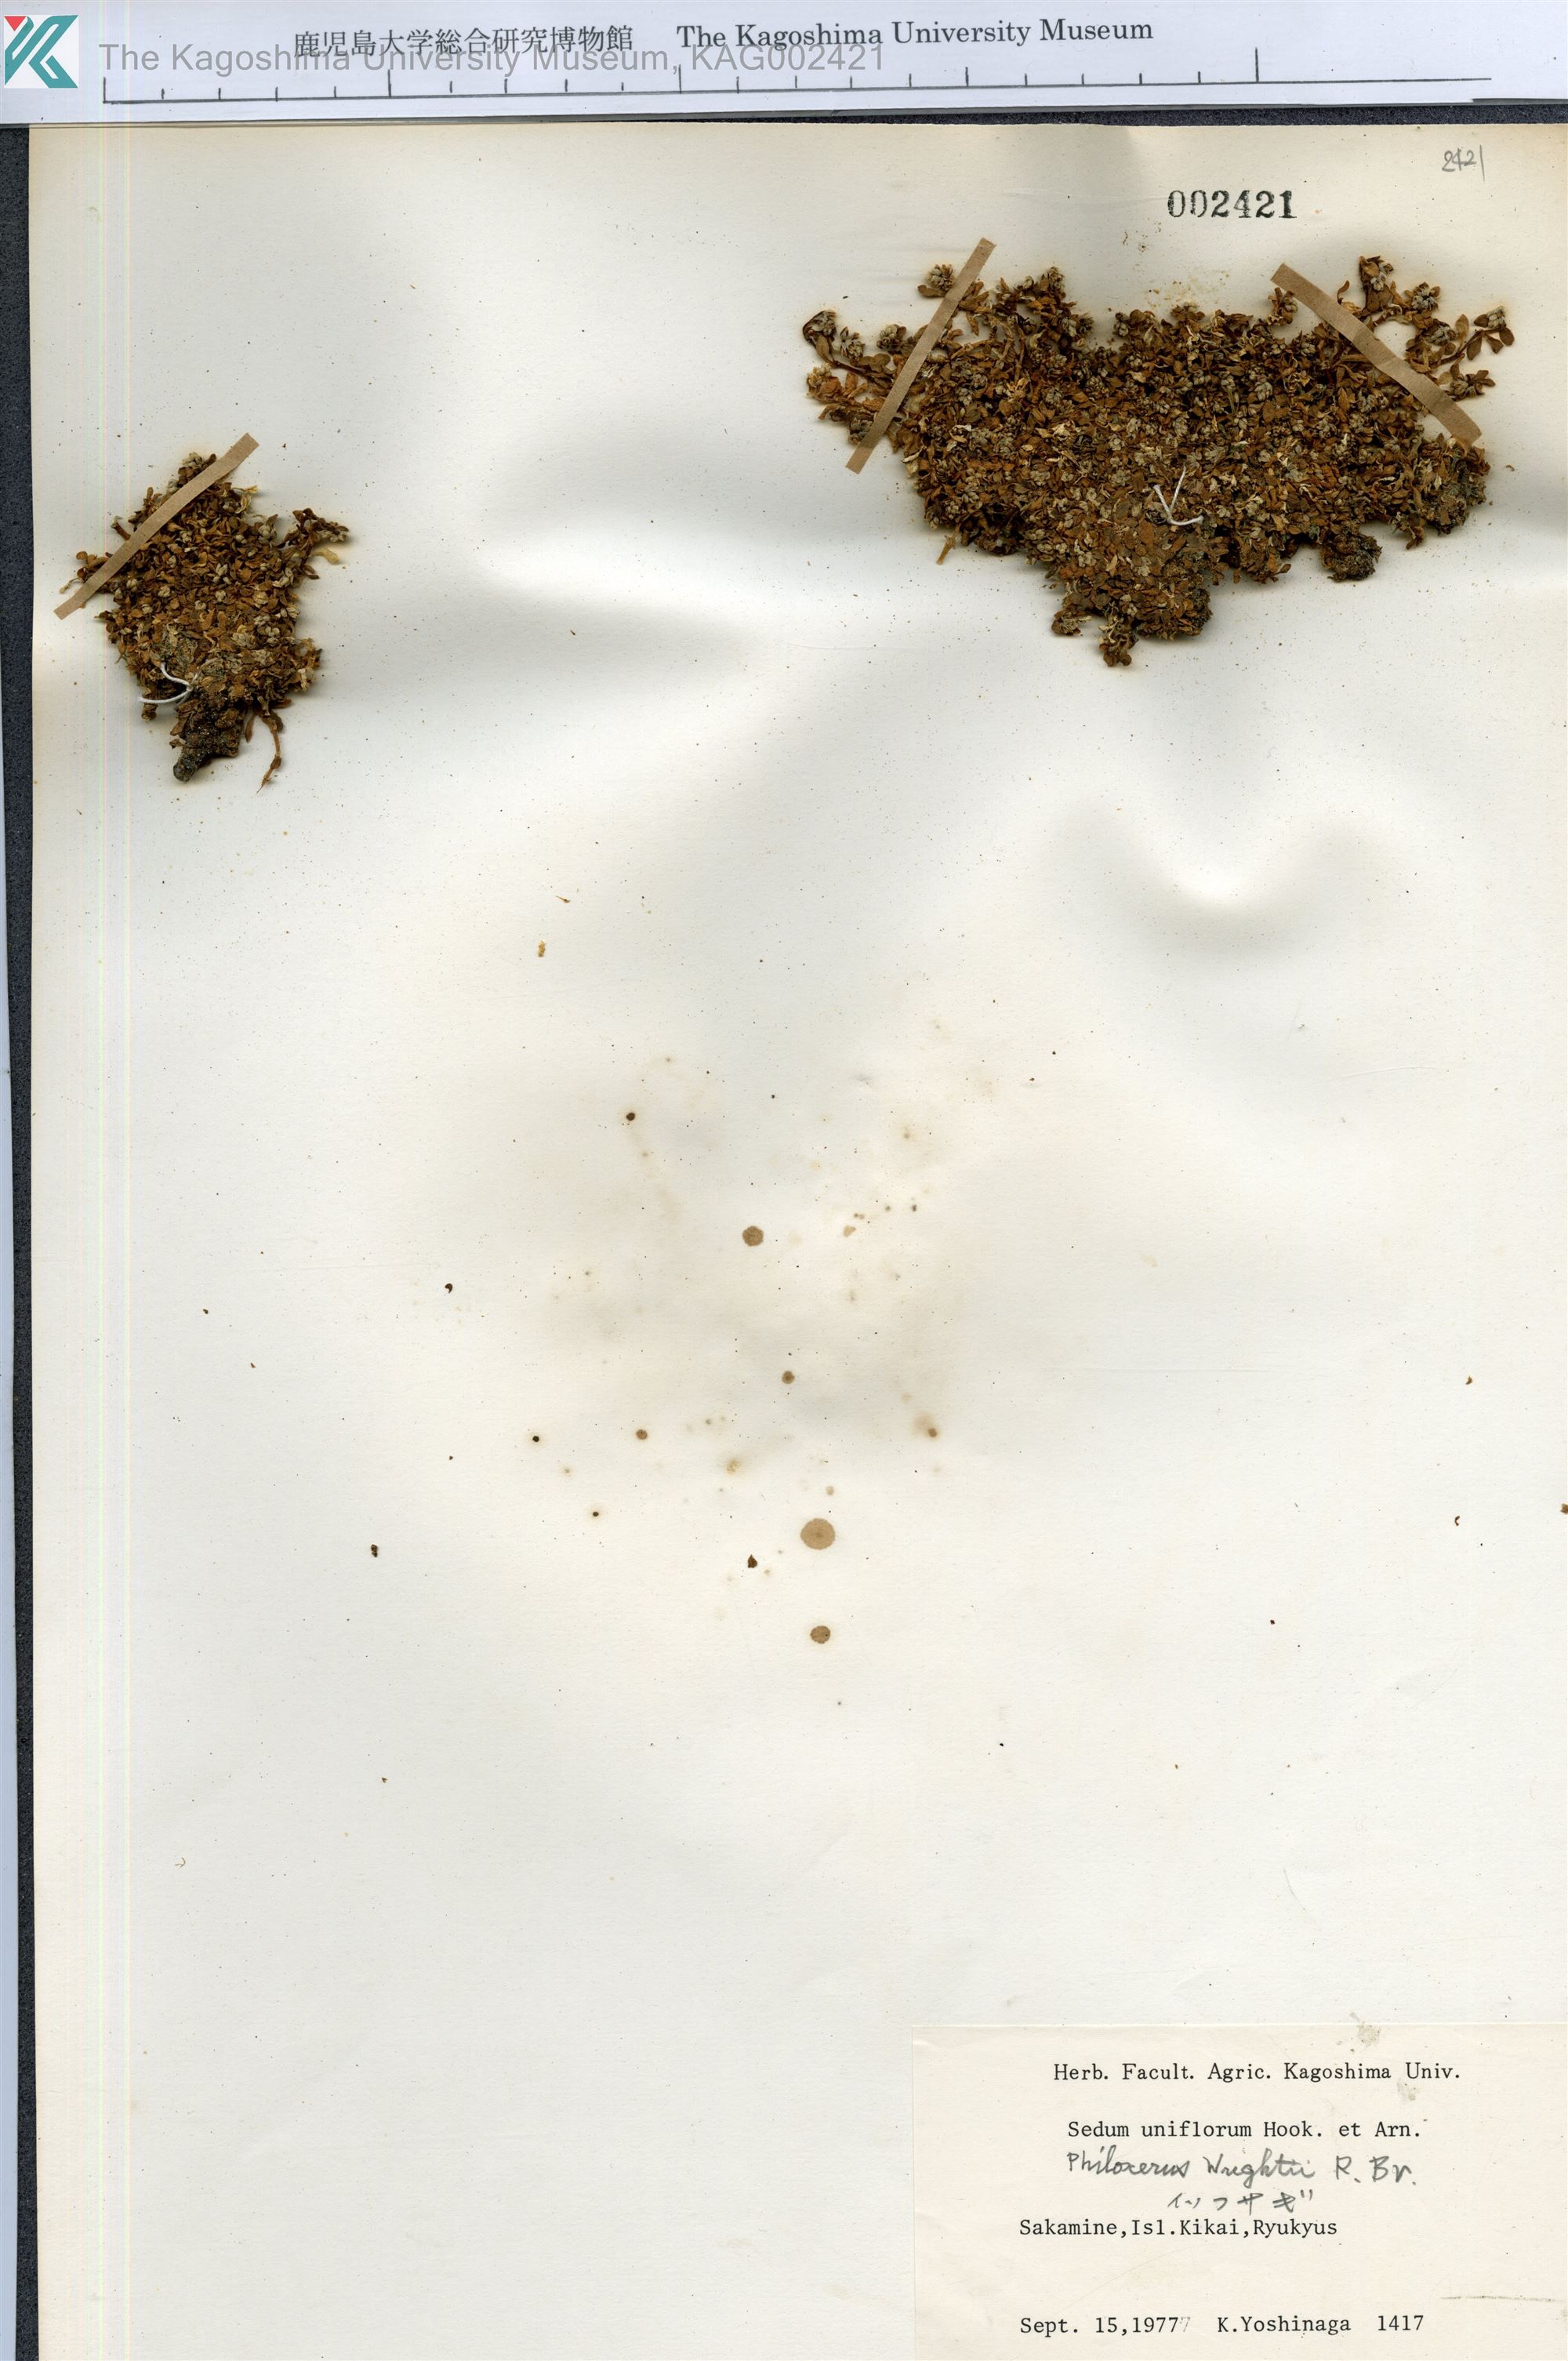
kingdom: Plantae
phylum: Tracheophyta
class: Magnoliopsida
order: Caryophyllales
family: Amaranthaceae
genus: Gomphrena
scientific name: Gomphrena wrightii
